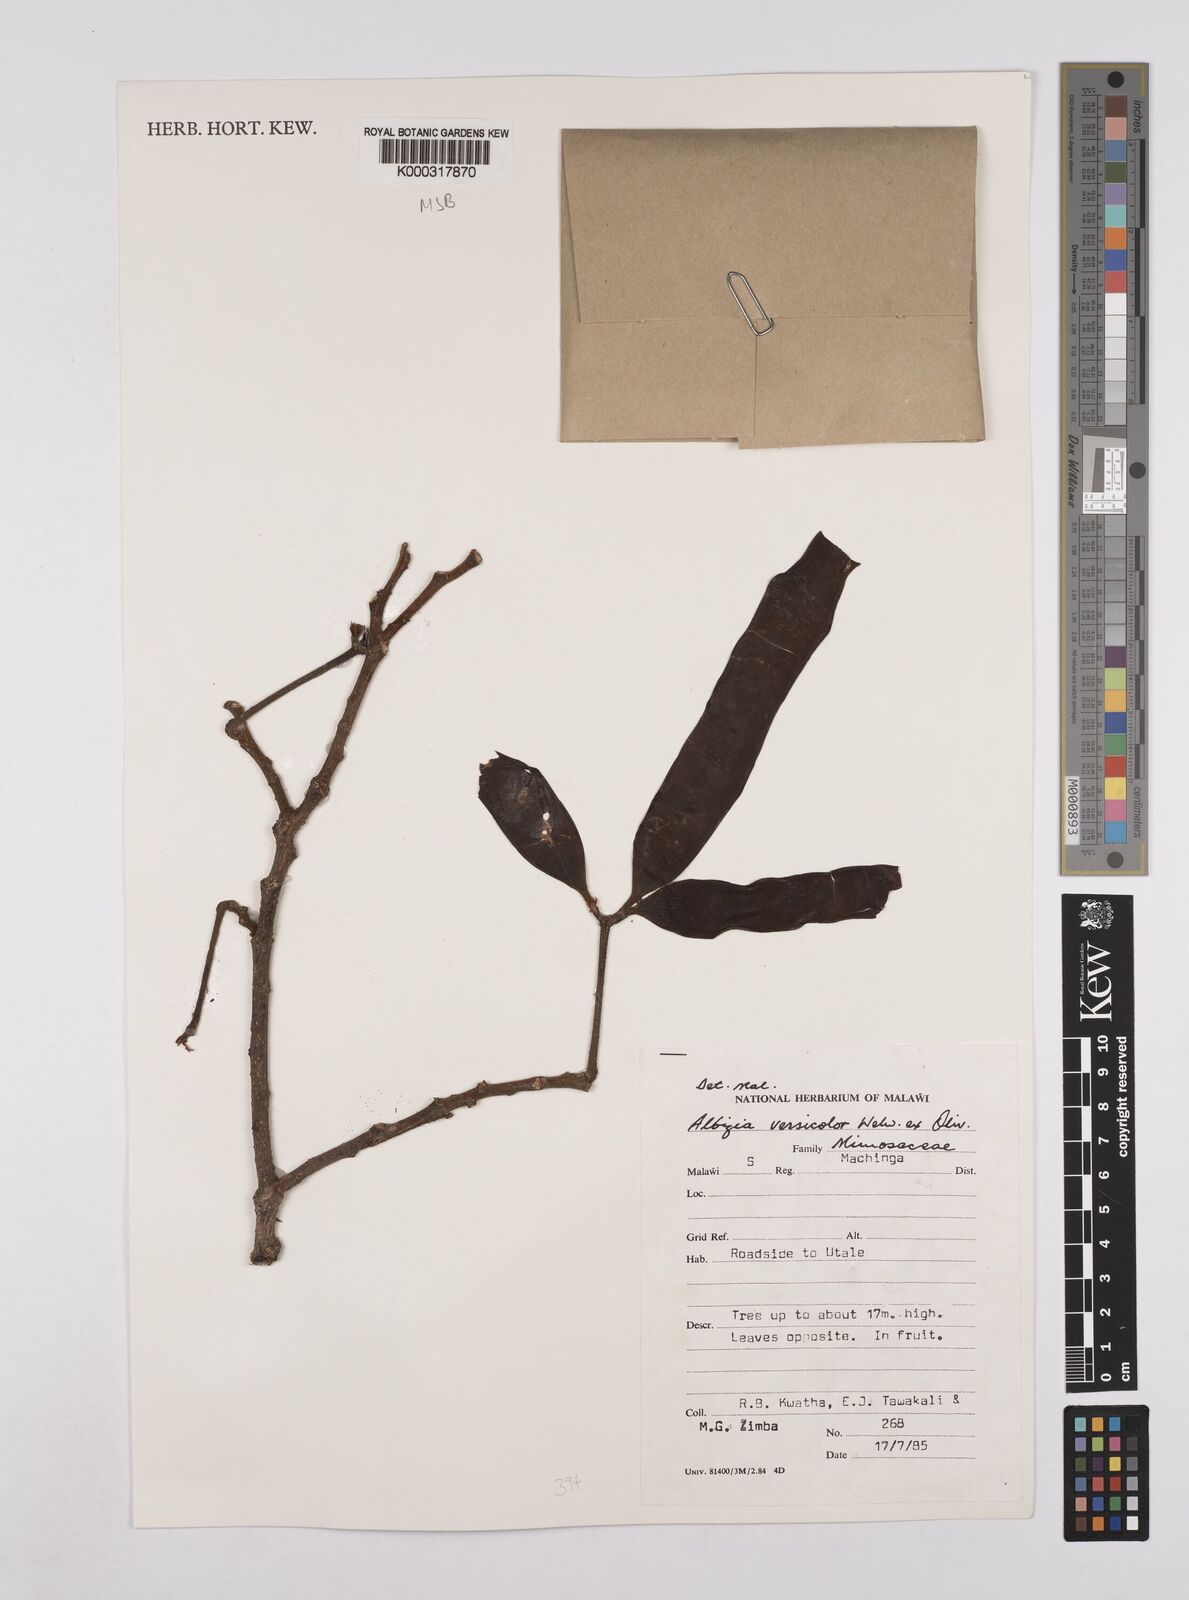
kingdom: Plantae
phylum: Tracheophyta
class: Magnoliopsida
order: Fabales
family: Fabaceae
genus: Albizia
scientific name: Albizia versicolor
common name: Poisonpod
